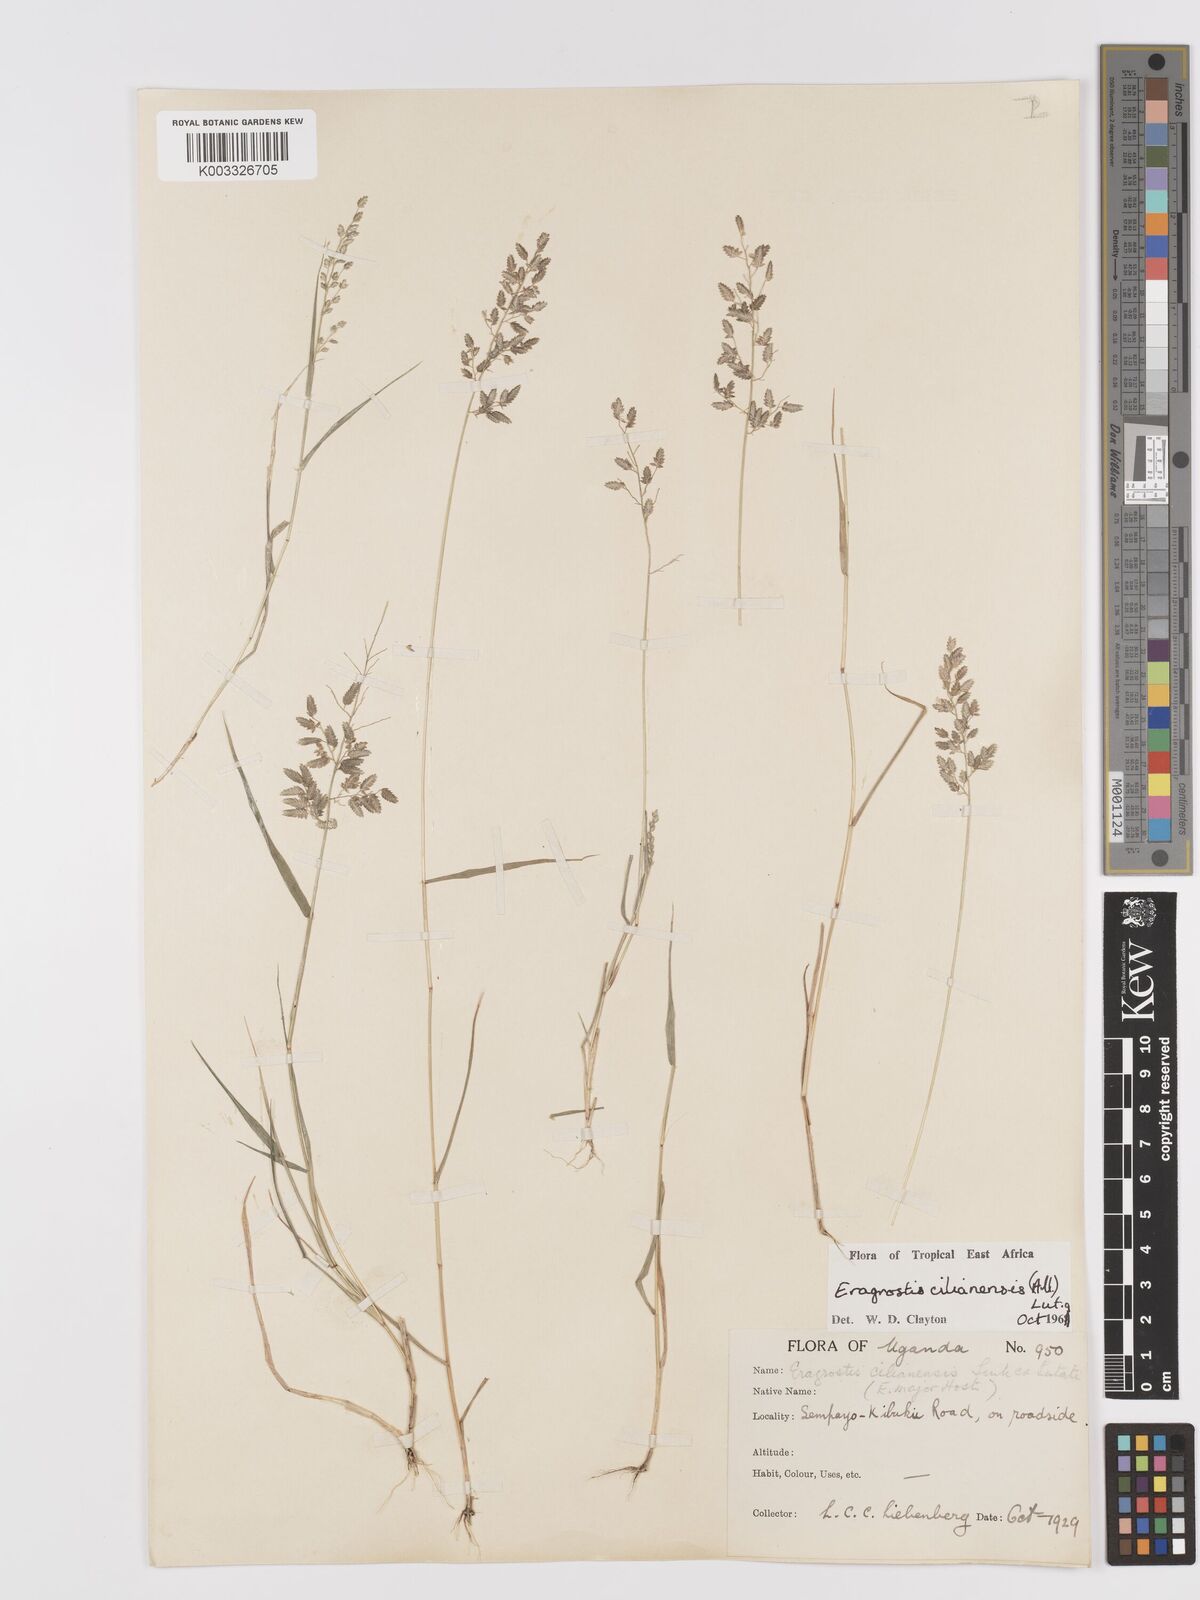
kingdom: Plantae
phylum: Tracheophyta
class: Liliopsida
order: Poales
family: Poaceae
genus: Eragrostis
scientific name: Eragrostis cilianensis
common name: Stinkgrass
